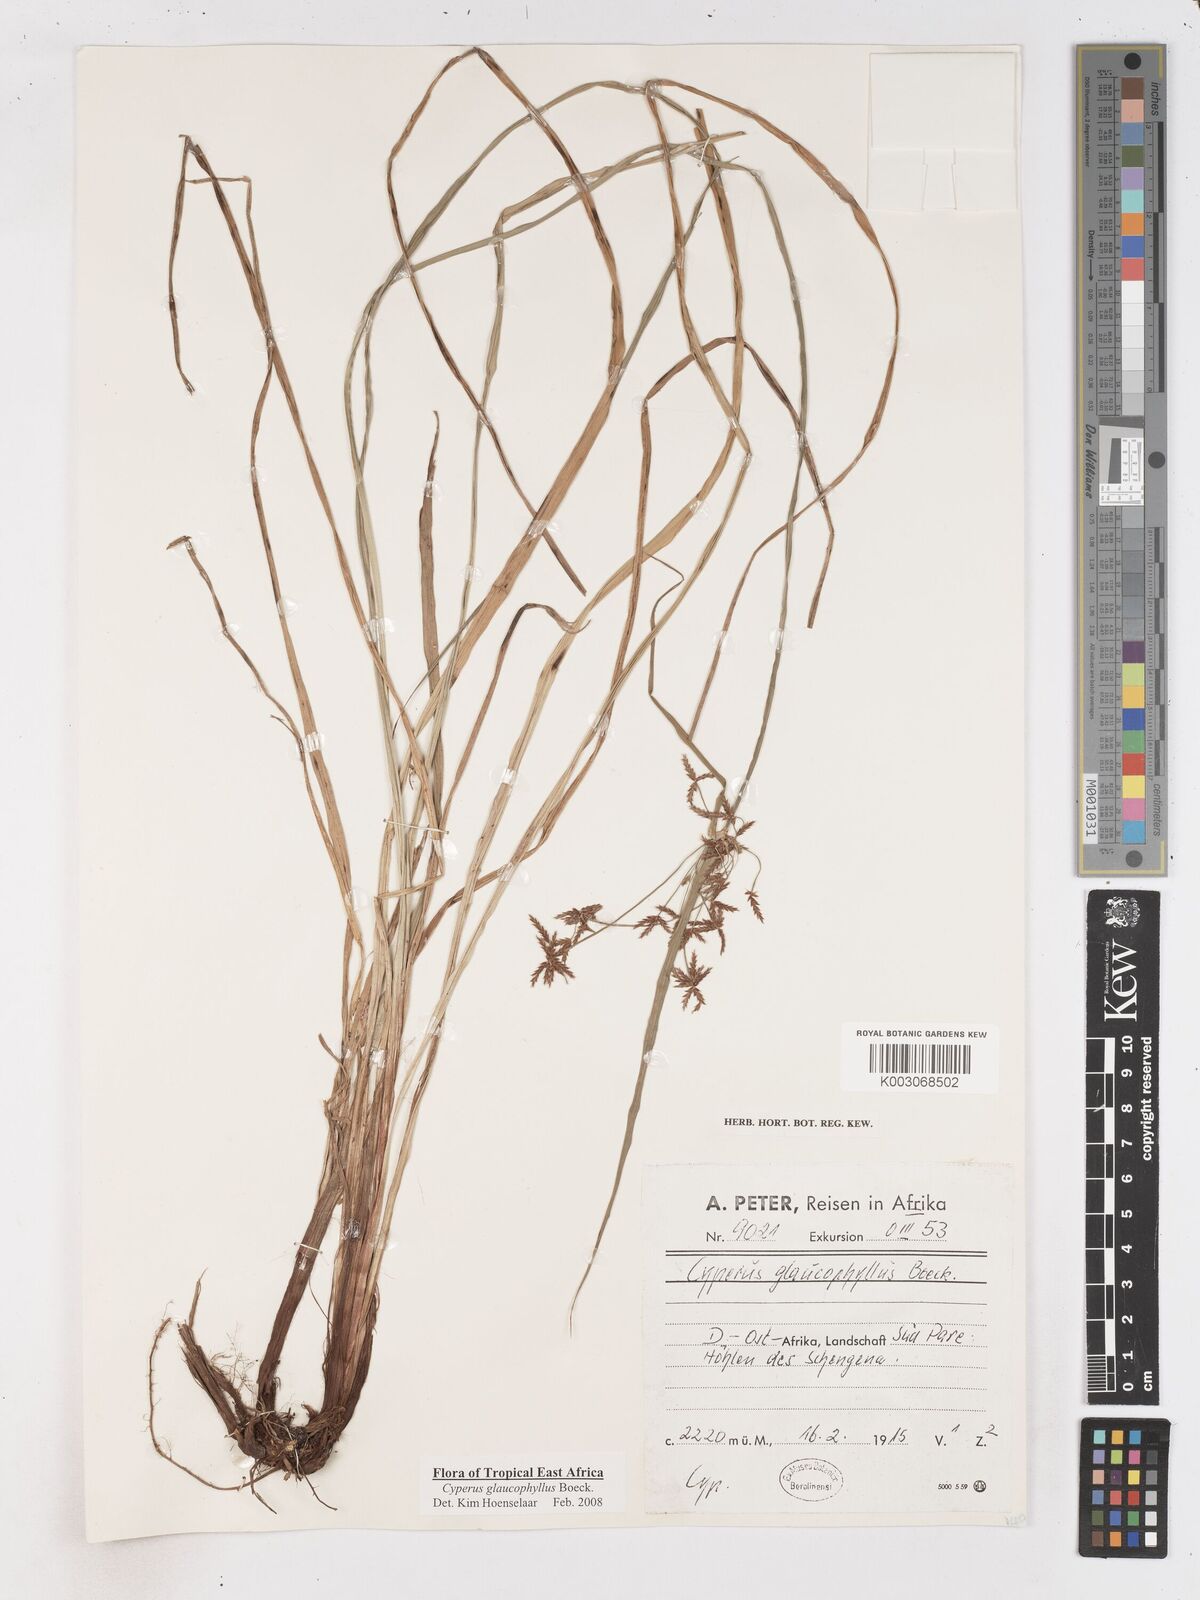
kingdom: Plantae
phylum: Tracheophyta
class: Liliopsida
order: Poales
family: Cyperaceae
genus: Cyperus
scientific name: Cyperus glaucophyllus
